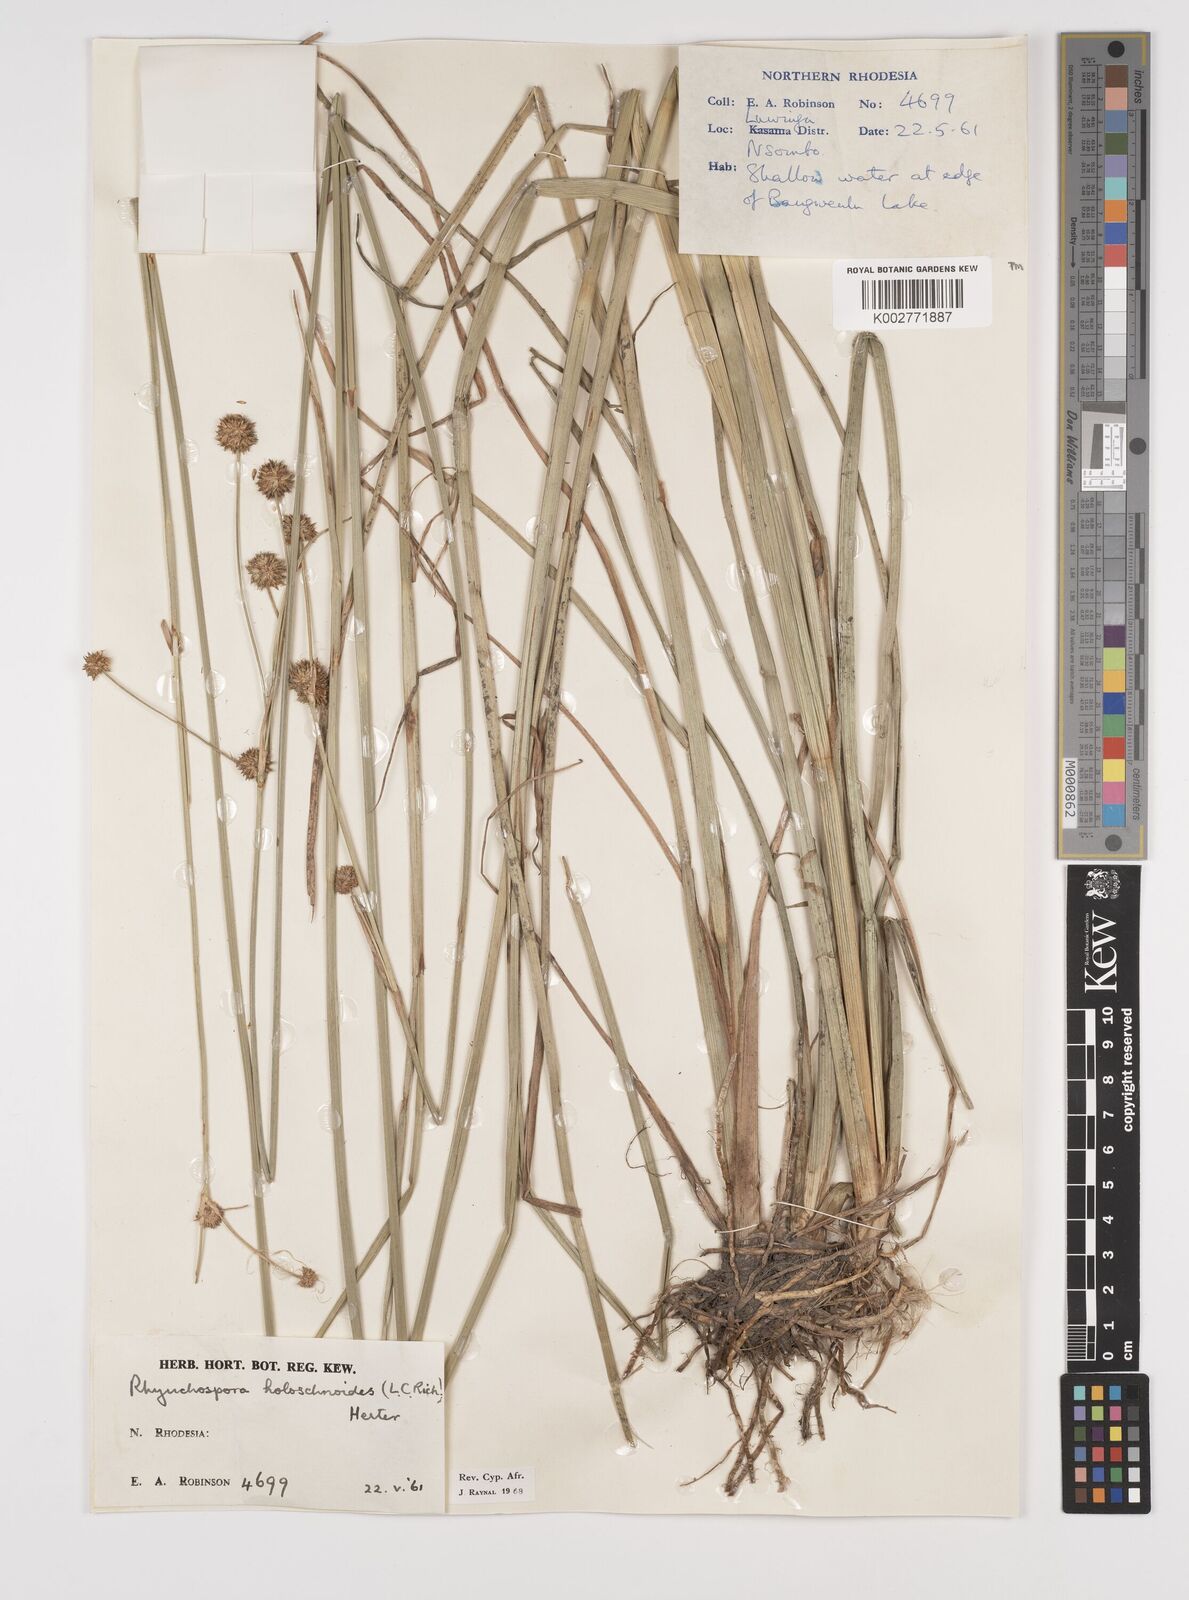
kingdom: Plantae
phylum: Tracheophyta
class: Liliopsida
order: Poales
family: Cyperaceae
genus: Rhynchospora
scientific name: Rhynchospora holoschoenoides
